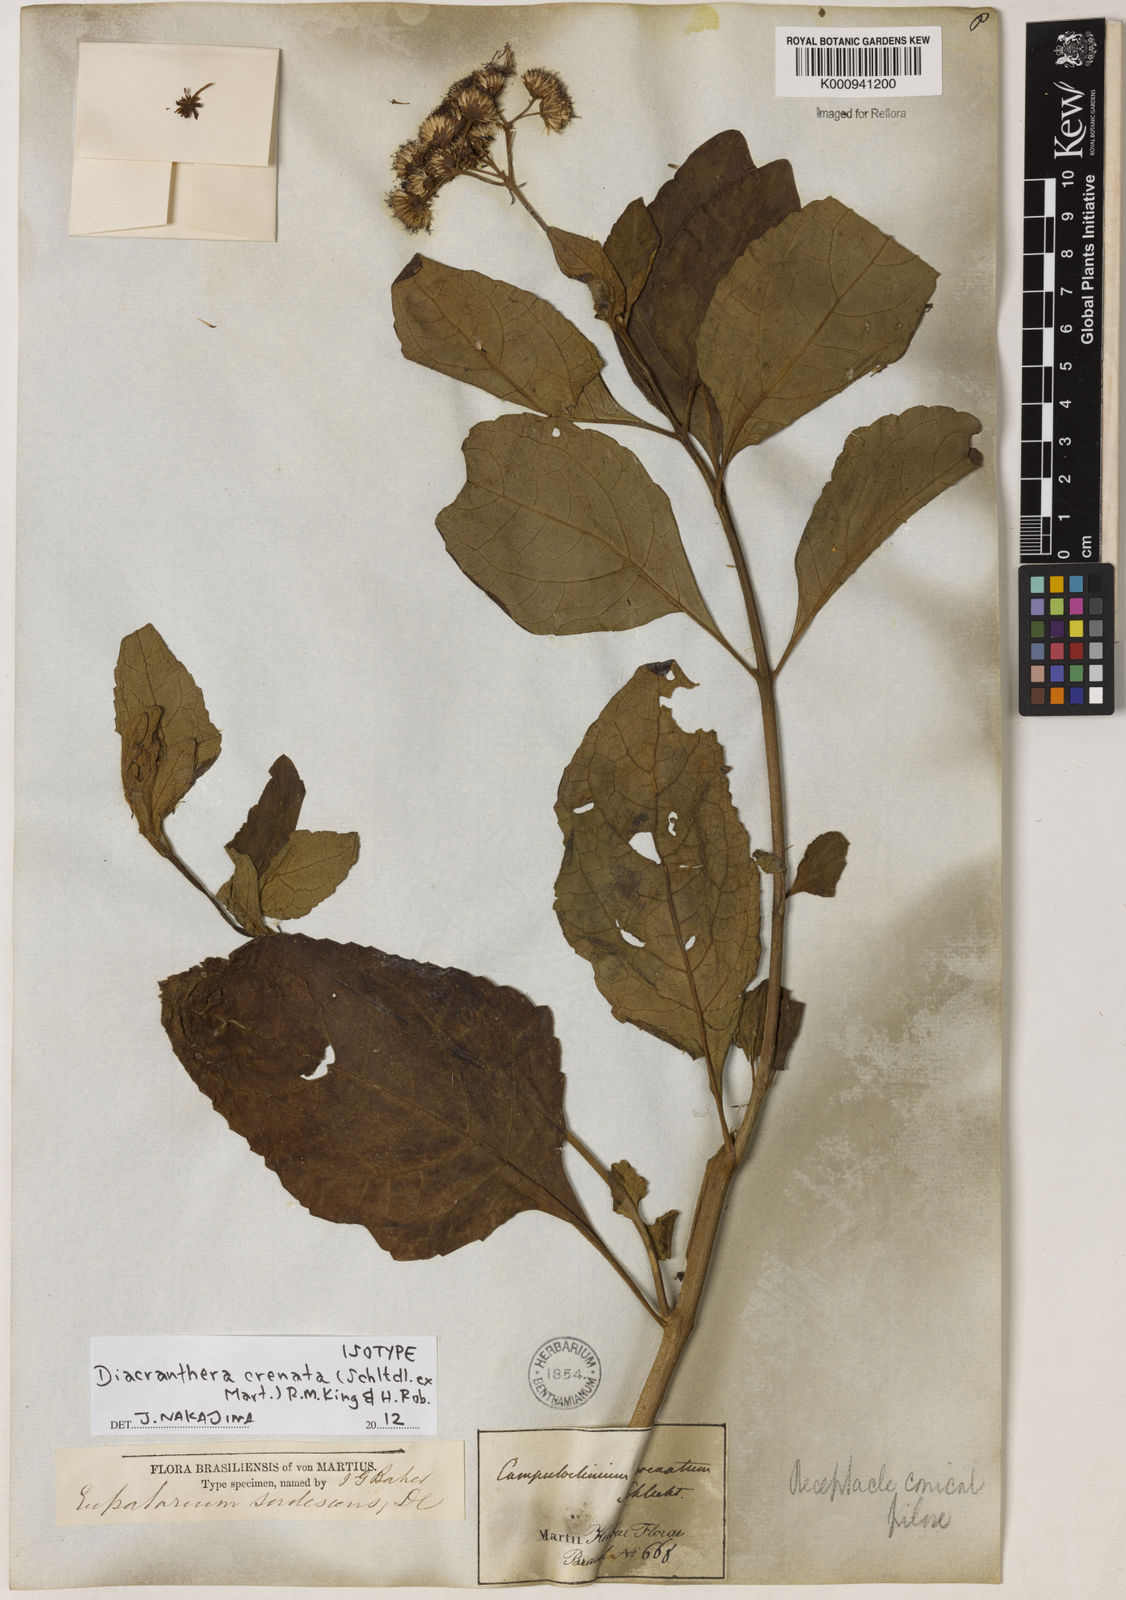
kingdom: Plantae
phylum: Tracheophyta
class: Magnoliopsida
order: Asterales
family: Asteraceae
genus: Diacranthera
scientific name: Diacranthera crenata
